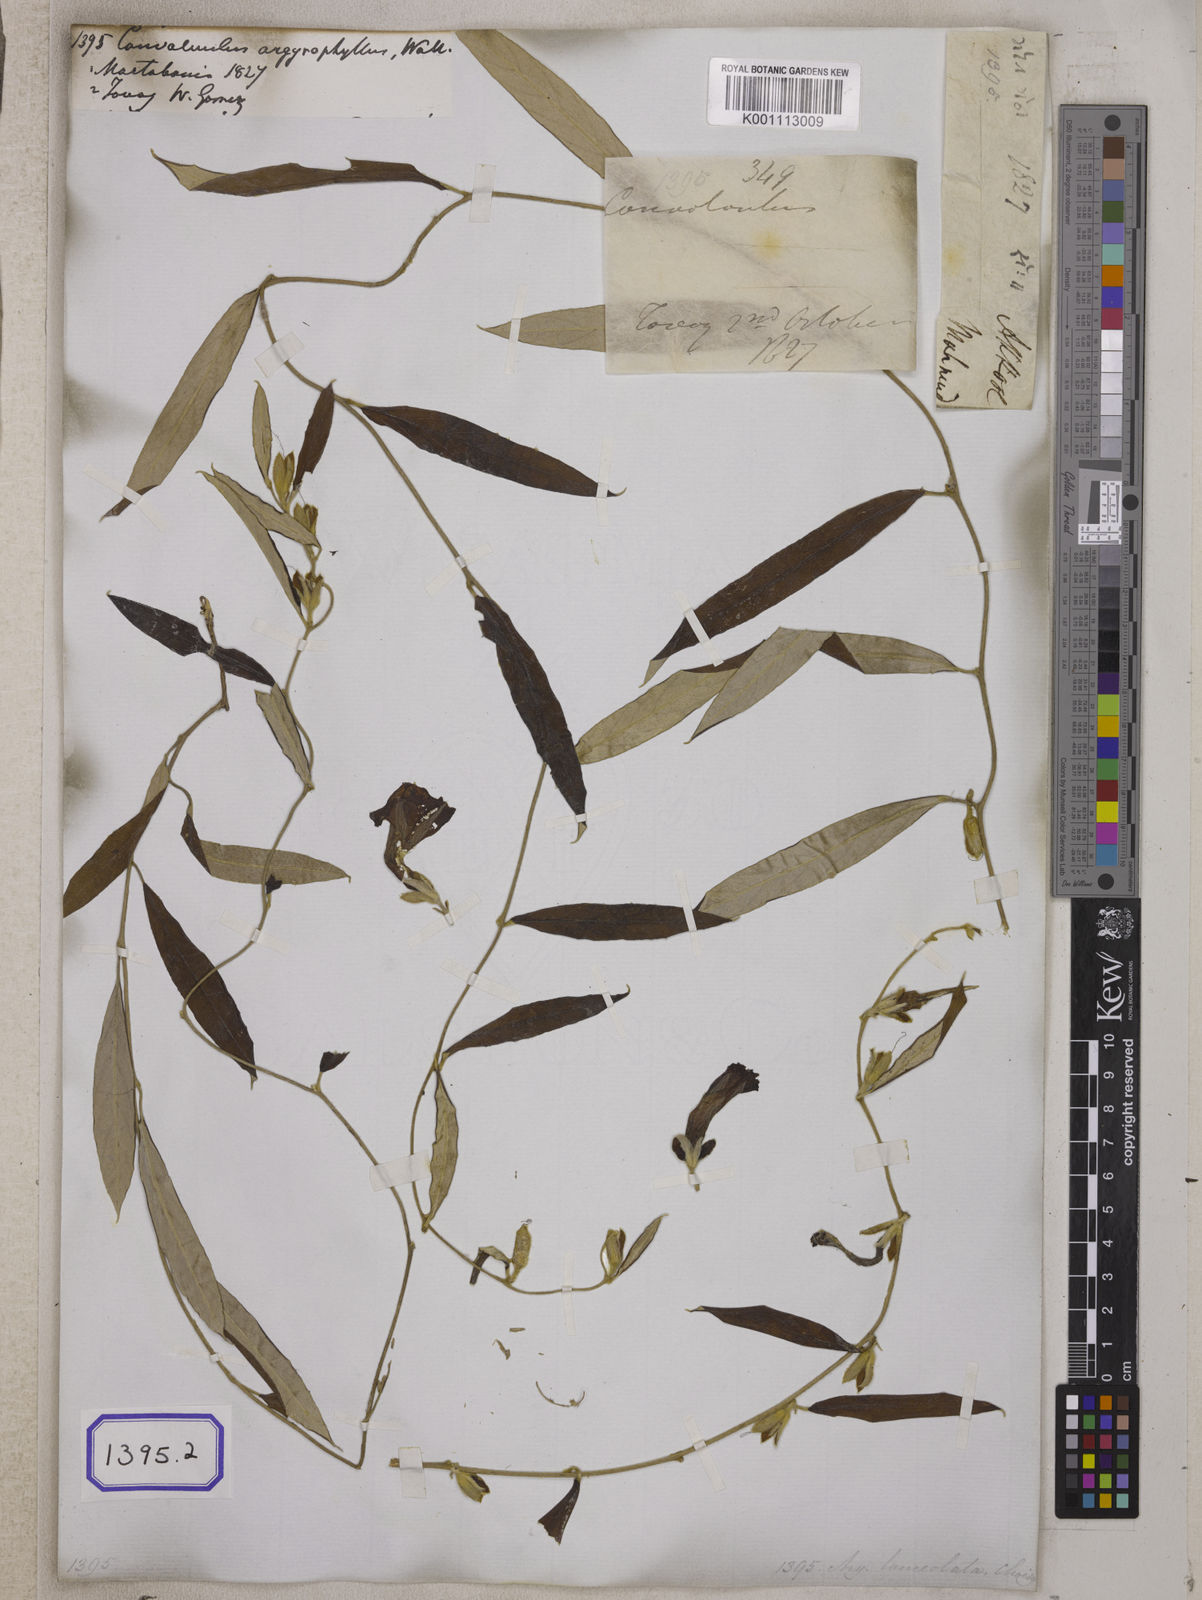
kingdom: Plantae
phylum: Tracheophyta
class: Magnoliopsida
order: Solanales
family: Convolvulaceae
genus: Convolvulus
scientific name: Convolvulus
